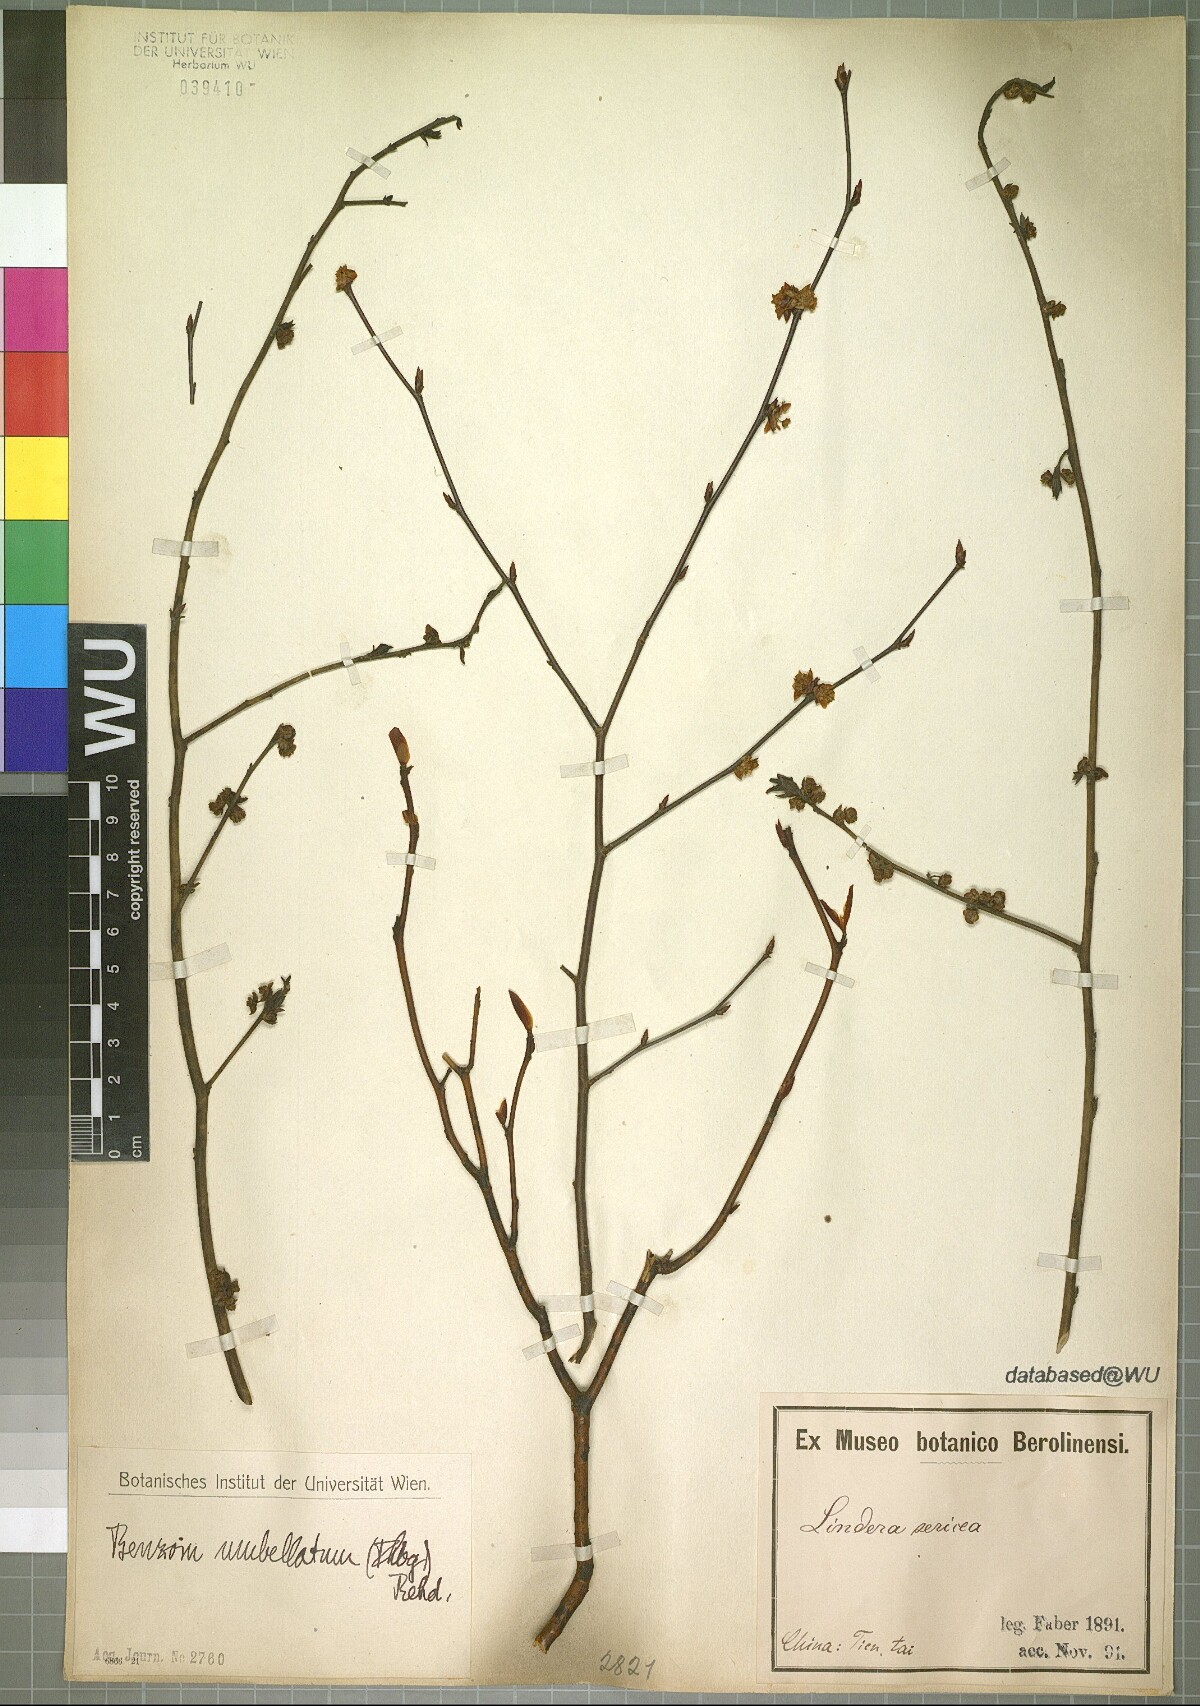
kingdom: Plantae
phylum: Tracheophyta
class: Magnoliopsida
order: Laurales
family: Lauraceae
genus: Lindera
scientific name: Lindera umbellata
